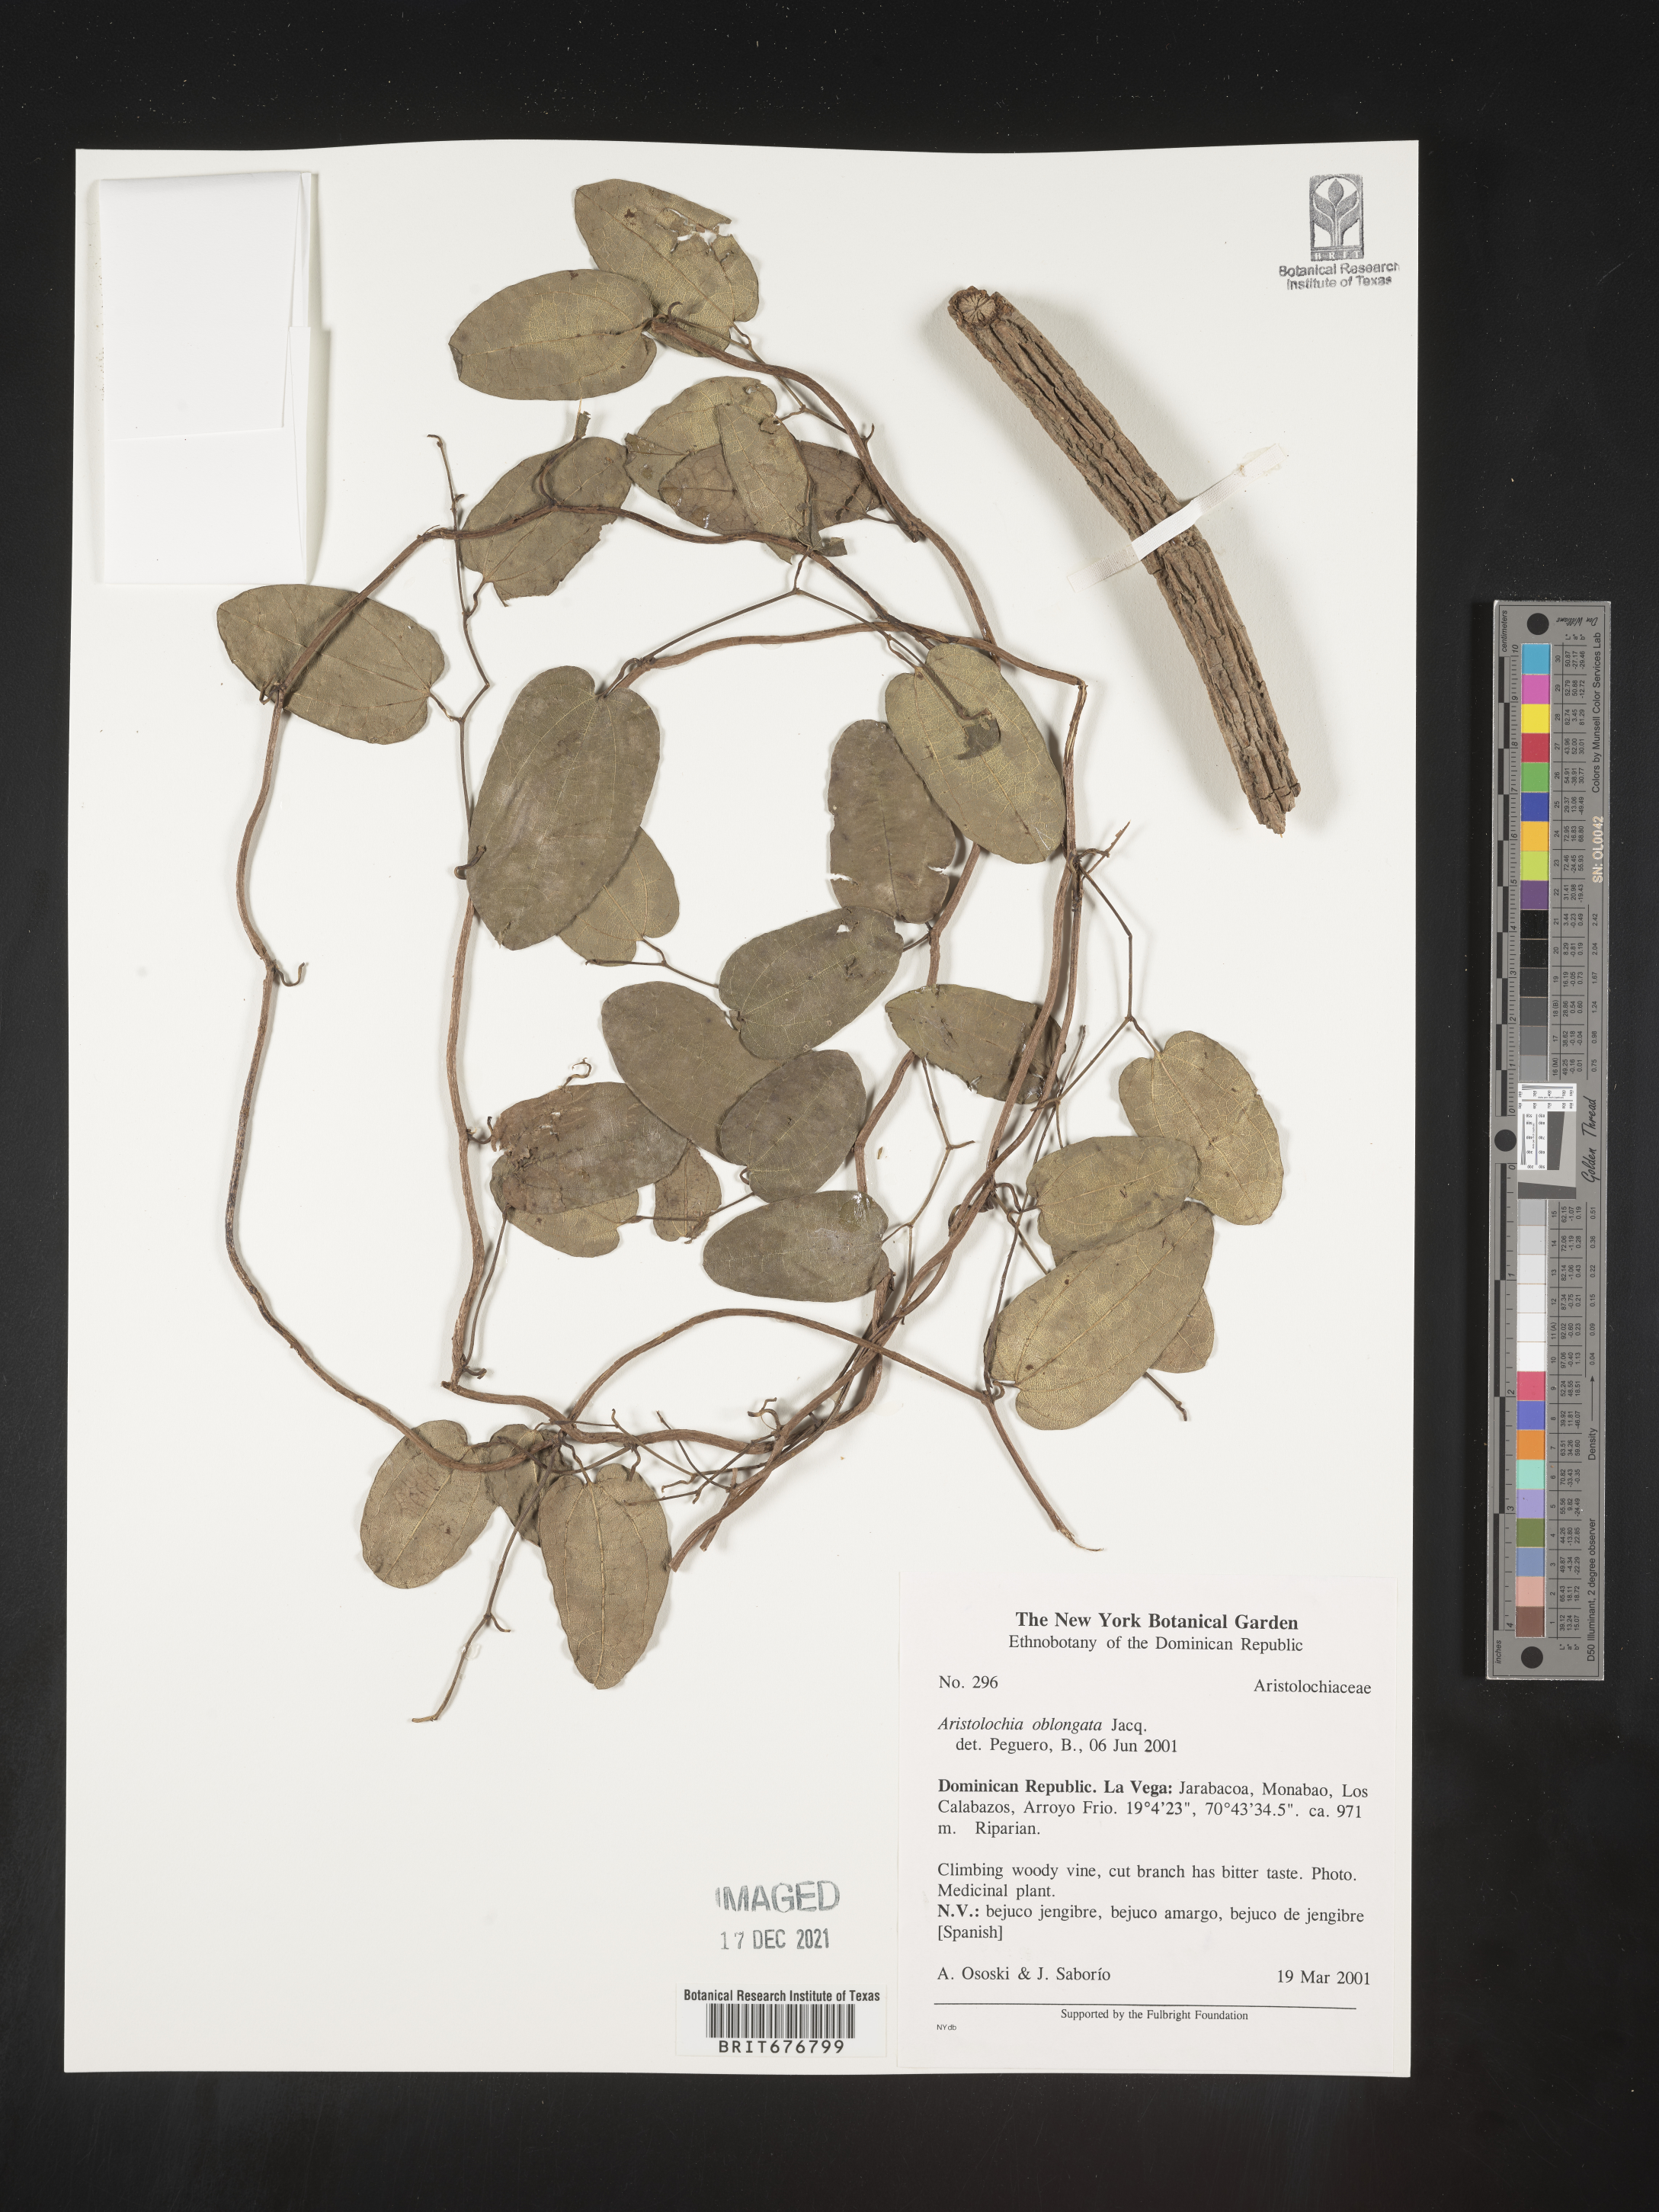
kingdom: Plantae
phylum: Tracheophyta
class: Magnoliopsida
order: Piperales
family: Aristolochiaceae
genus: Aristolochia
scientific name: Aristolochia
